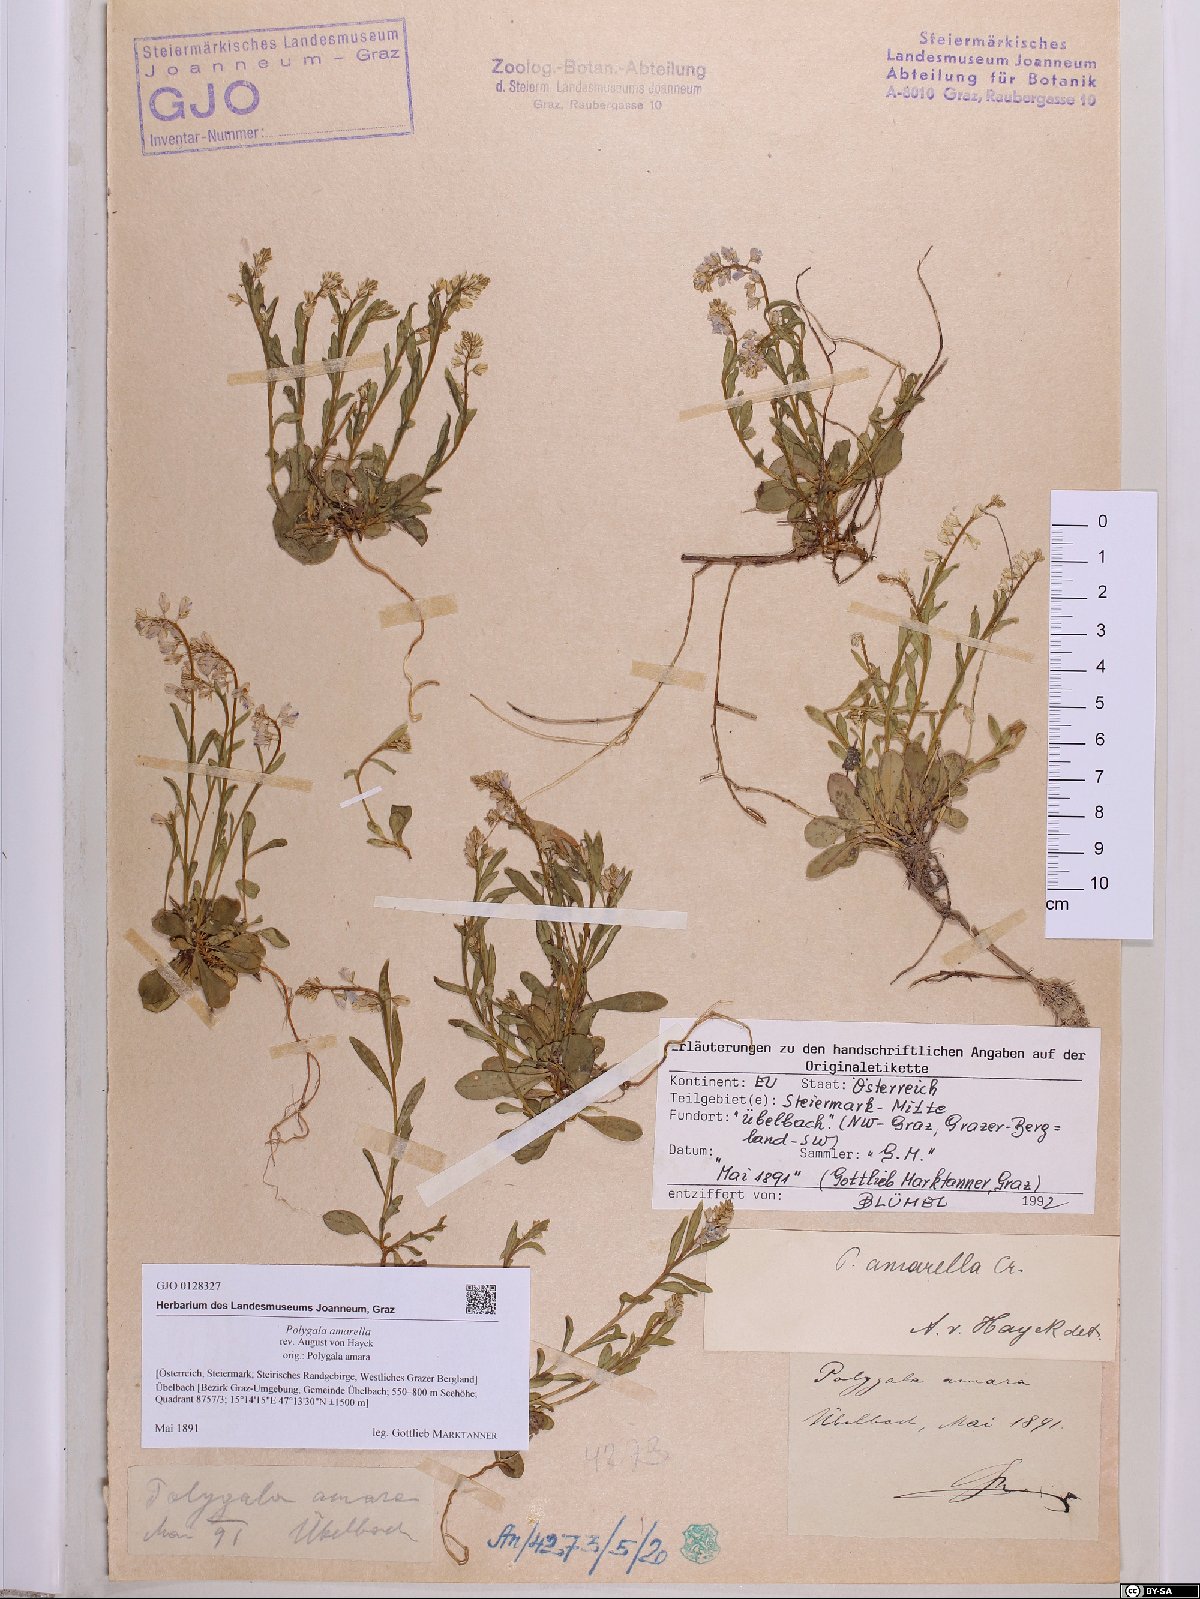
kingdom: Plantae
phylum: Tracheophyta
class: Magnoliopsida
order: Fabales
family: Polygalaceae
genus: Polygala
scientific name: Polygala amarella
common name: Dwarf milkwort
